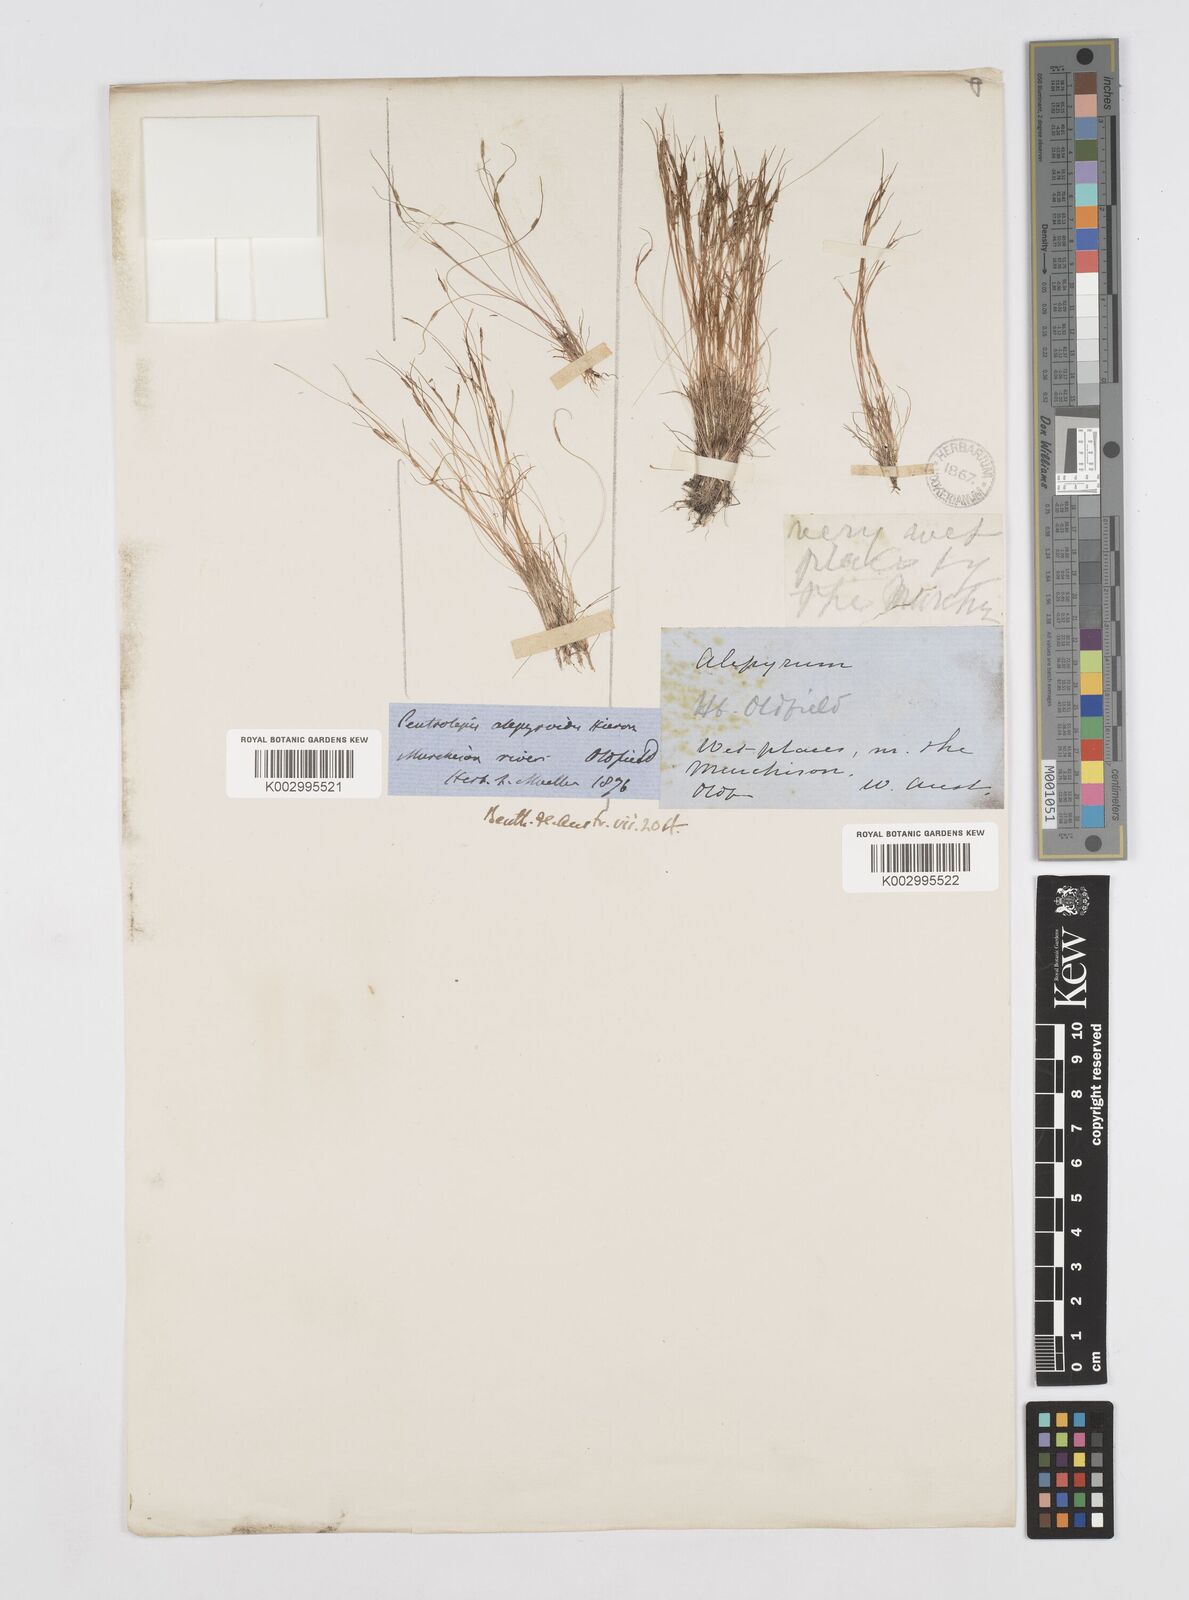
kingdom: Plantae
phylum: Tracheophyta
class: Liliopsida
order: Poales
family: Restionaceae
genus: Centrolepis
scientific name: Centrolepis alepyroides
